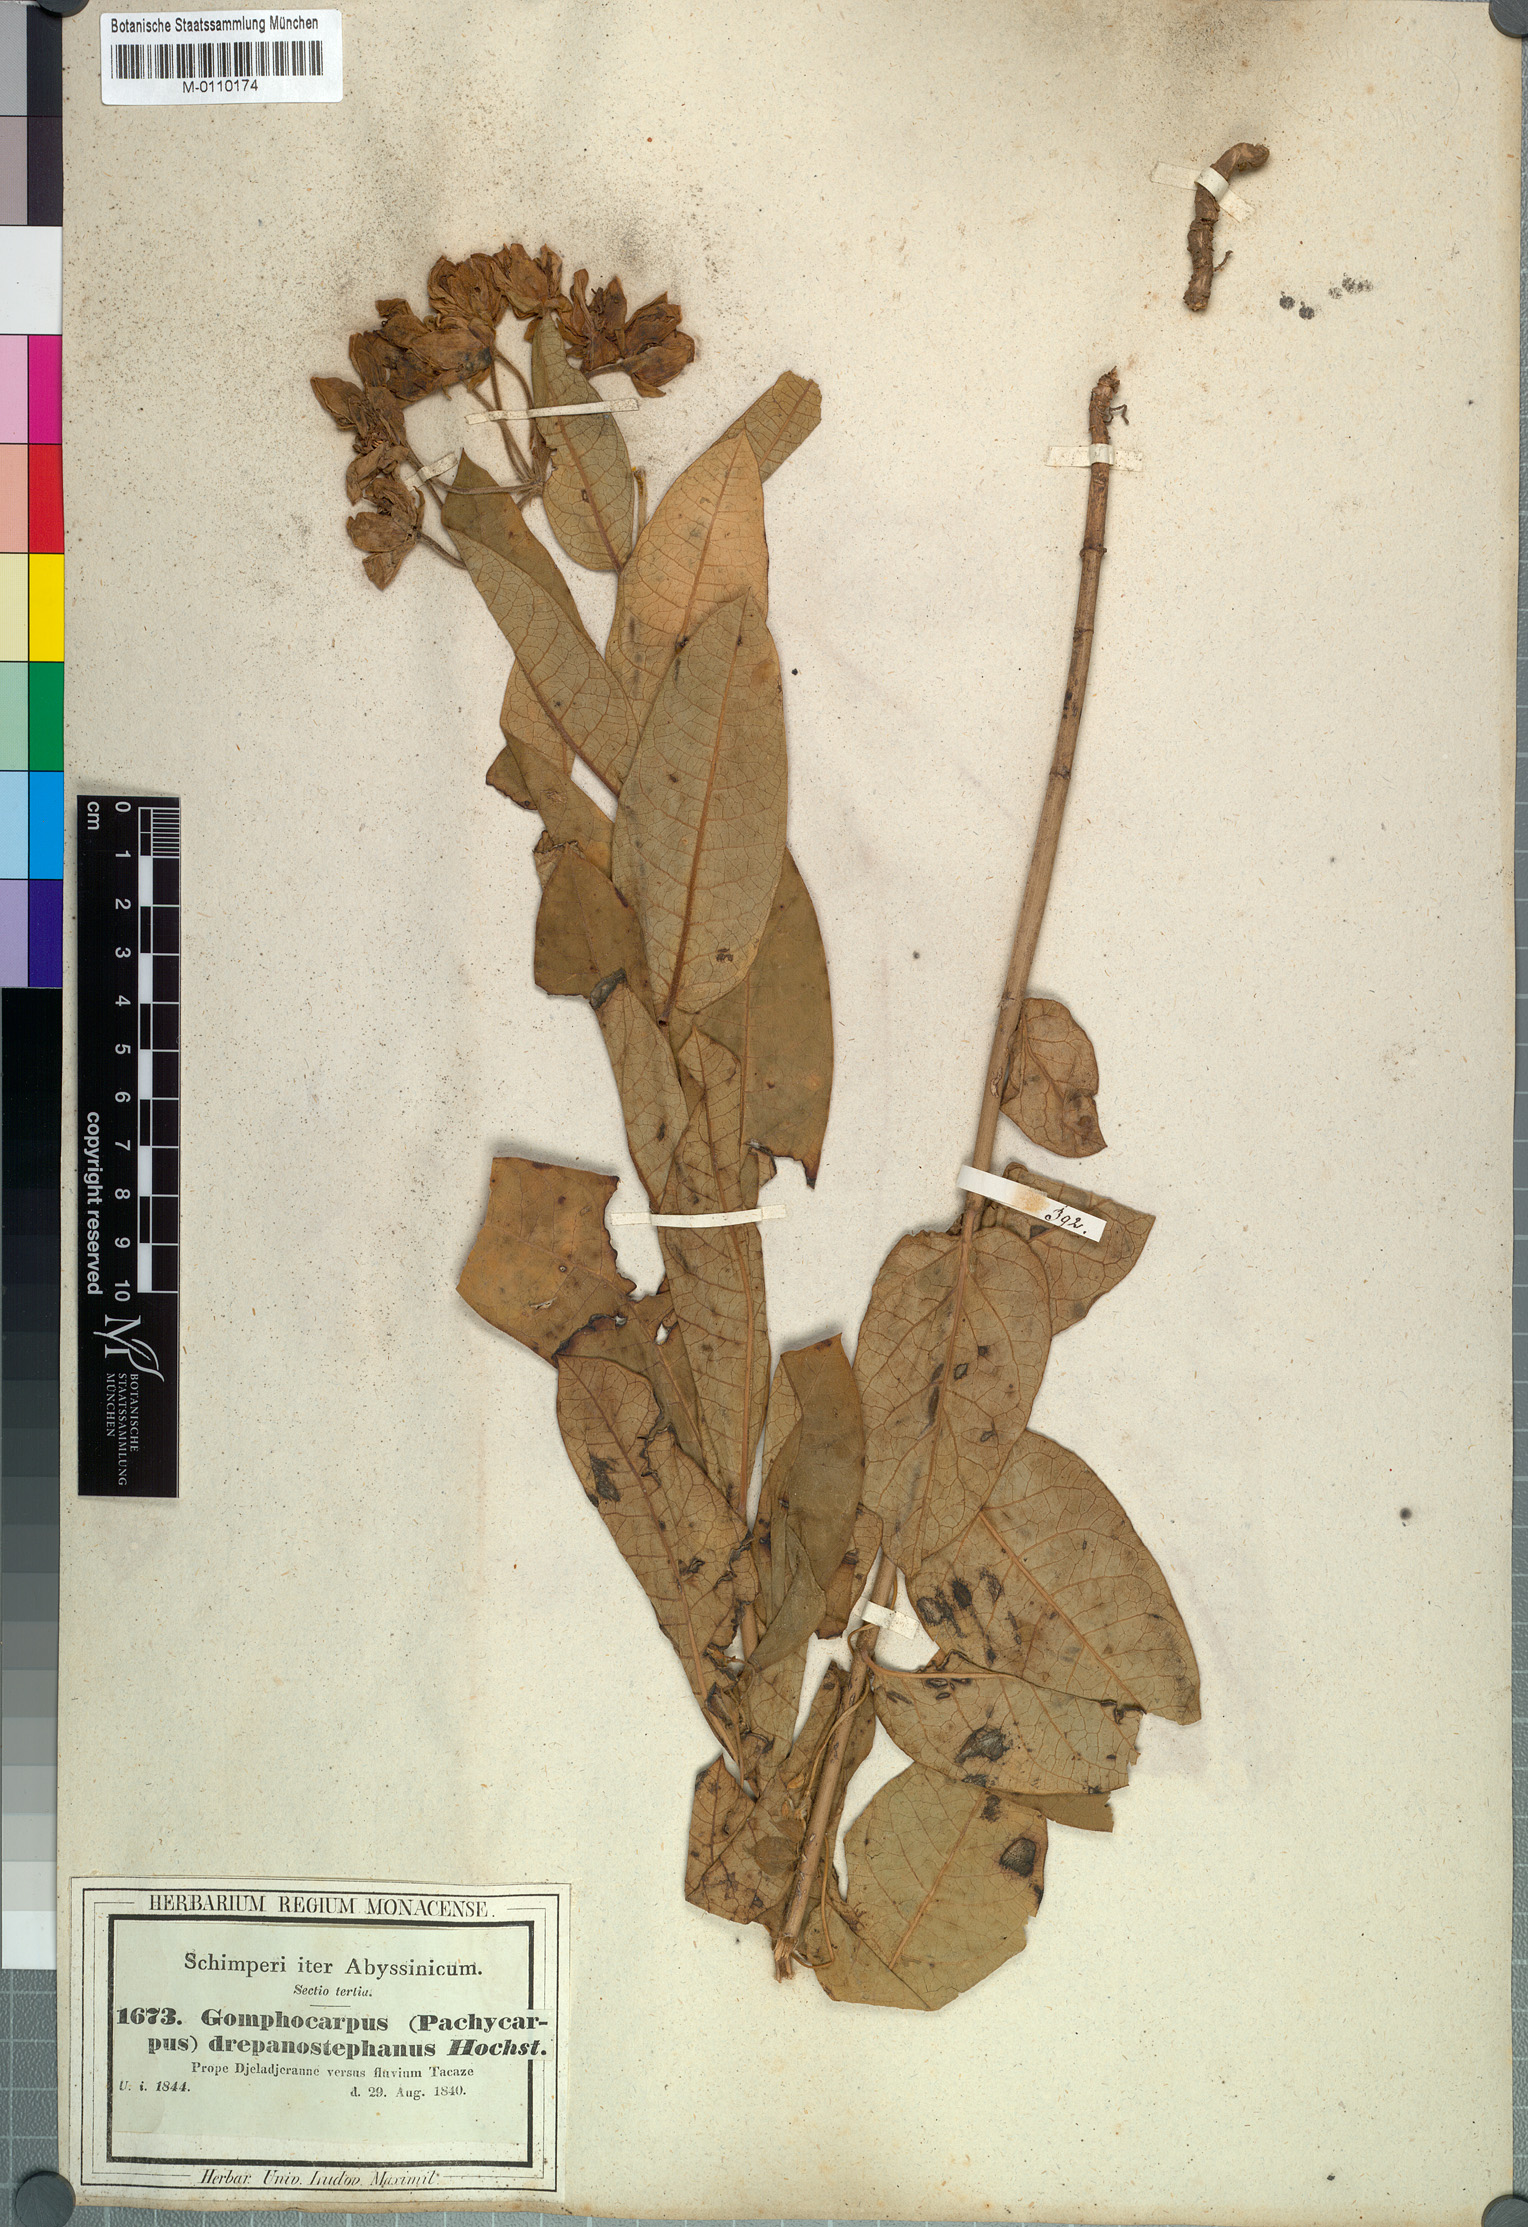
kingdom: Plantae
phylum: Tracheophyta
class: Magnoliopsida
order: Gentianales
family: Apocynaceae
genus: Pachycarpus
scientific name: Pachycarpus robustus
